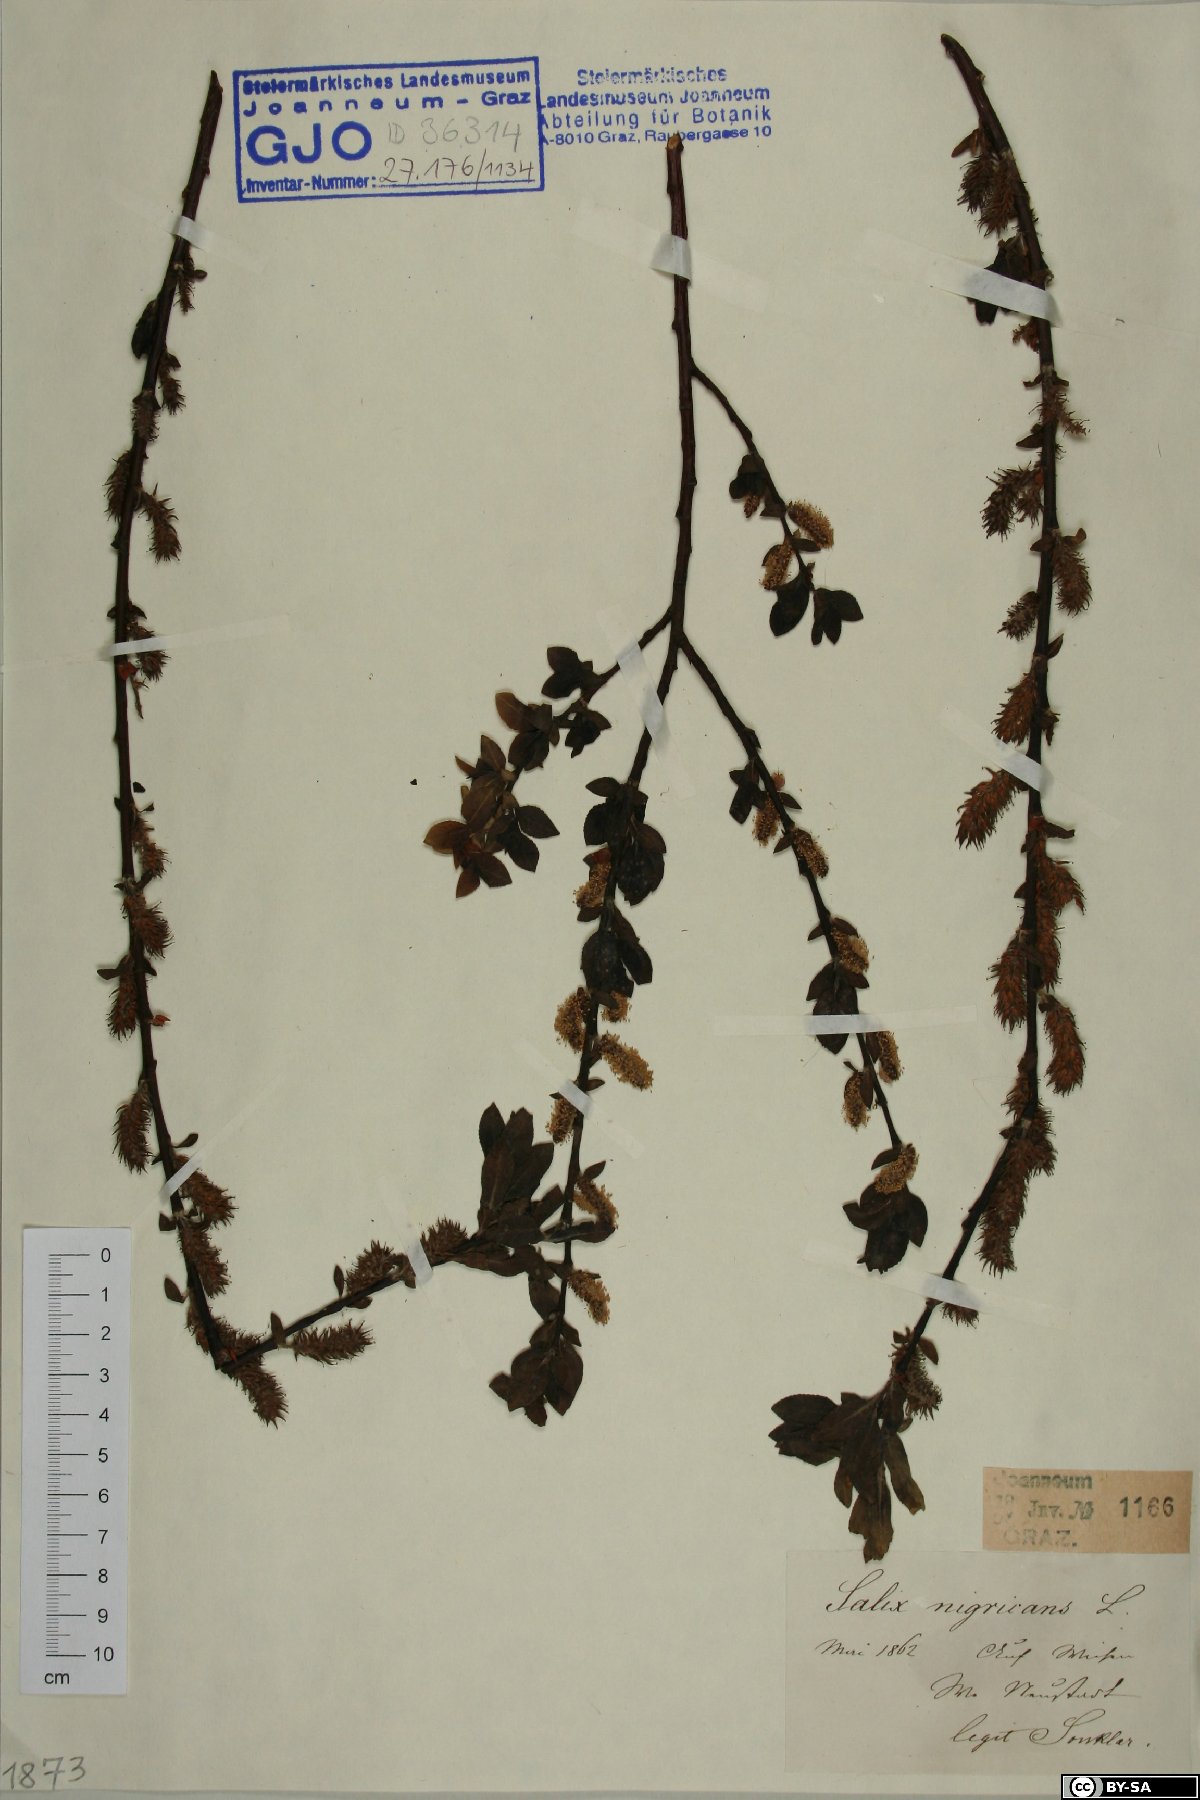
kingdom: Plantae
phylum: Tracheophyta
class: Magnoliopsida
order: Malpighiales
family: Salicaceae
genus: Salix
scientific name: Salix myrsinifolia
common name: Dark-leaved willow
